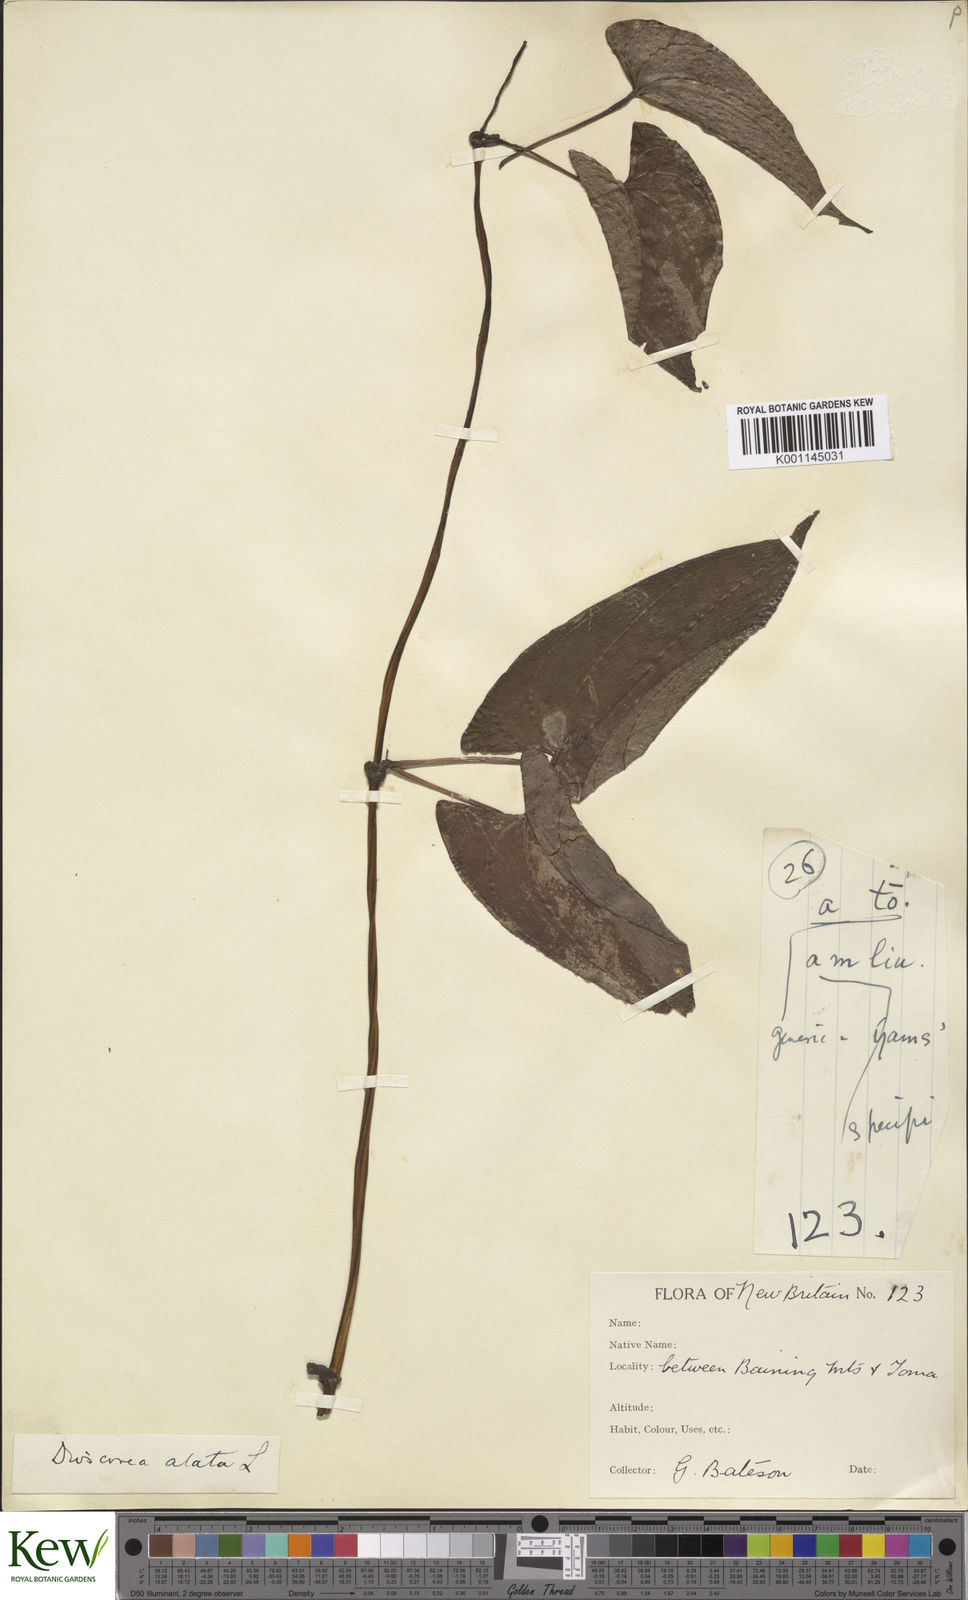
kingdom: Plantae
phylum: Tracheophyta
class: Liliopsida
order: Dioscoreales
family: Dioscoreaceae
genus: Dioscorea
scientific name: Dioscorea alata
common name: Water yam
